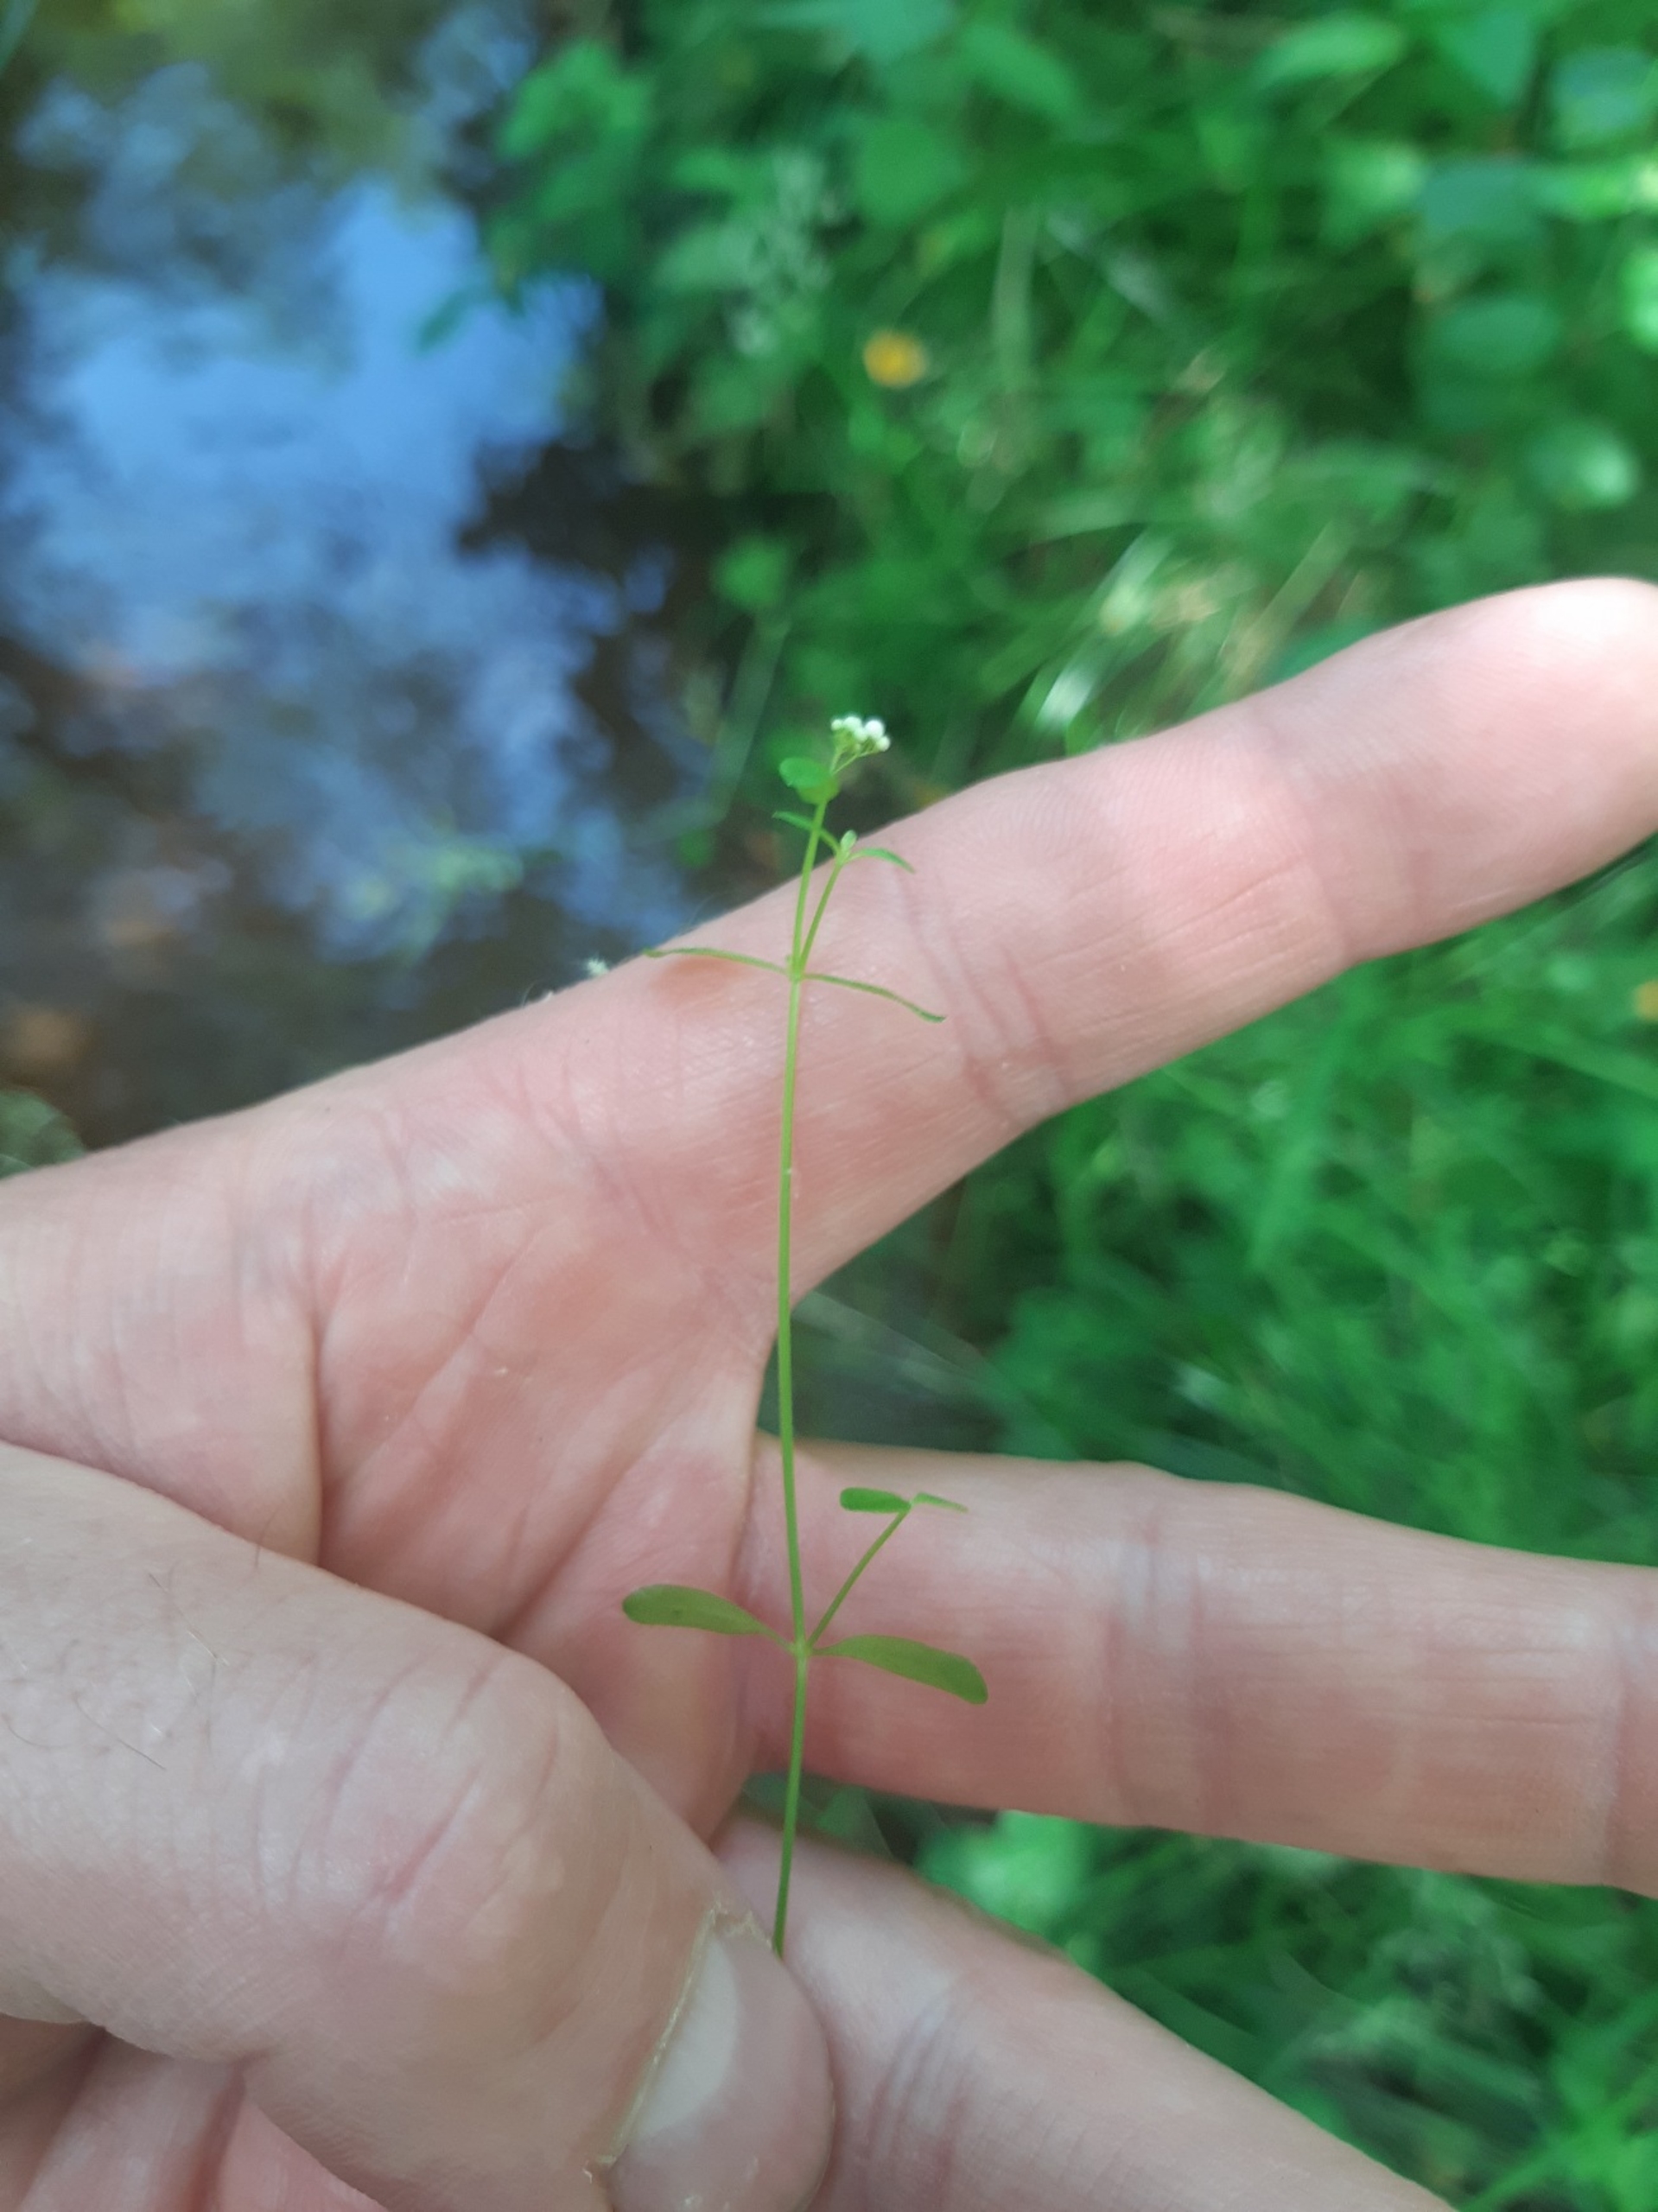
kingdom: Plantae
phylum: Tracheophyta
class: Magnoliopsida
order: Gentianales
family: Rubiaceae
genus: Galium
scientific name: Galium palustre
